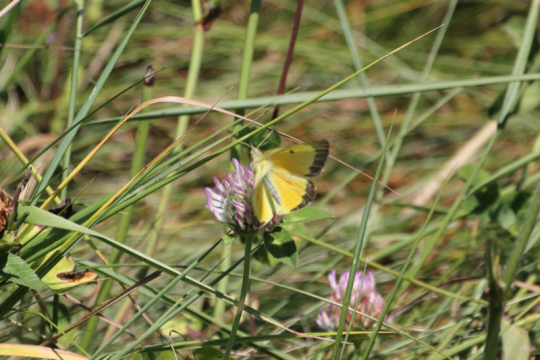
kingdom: Animalia
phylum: Arthropoda
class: Insecta
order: Lepidoptera
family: Pieridae
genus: Colias
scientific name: Colias eurytheme
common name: Orange Sulphur
